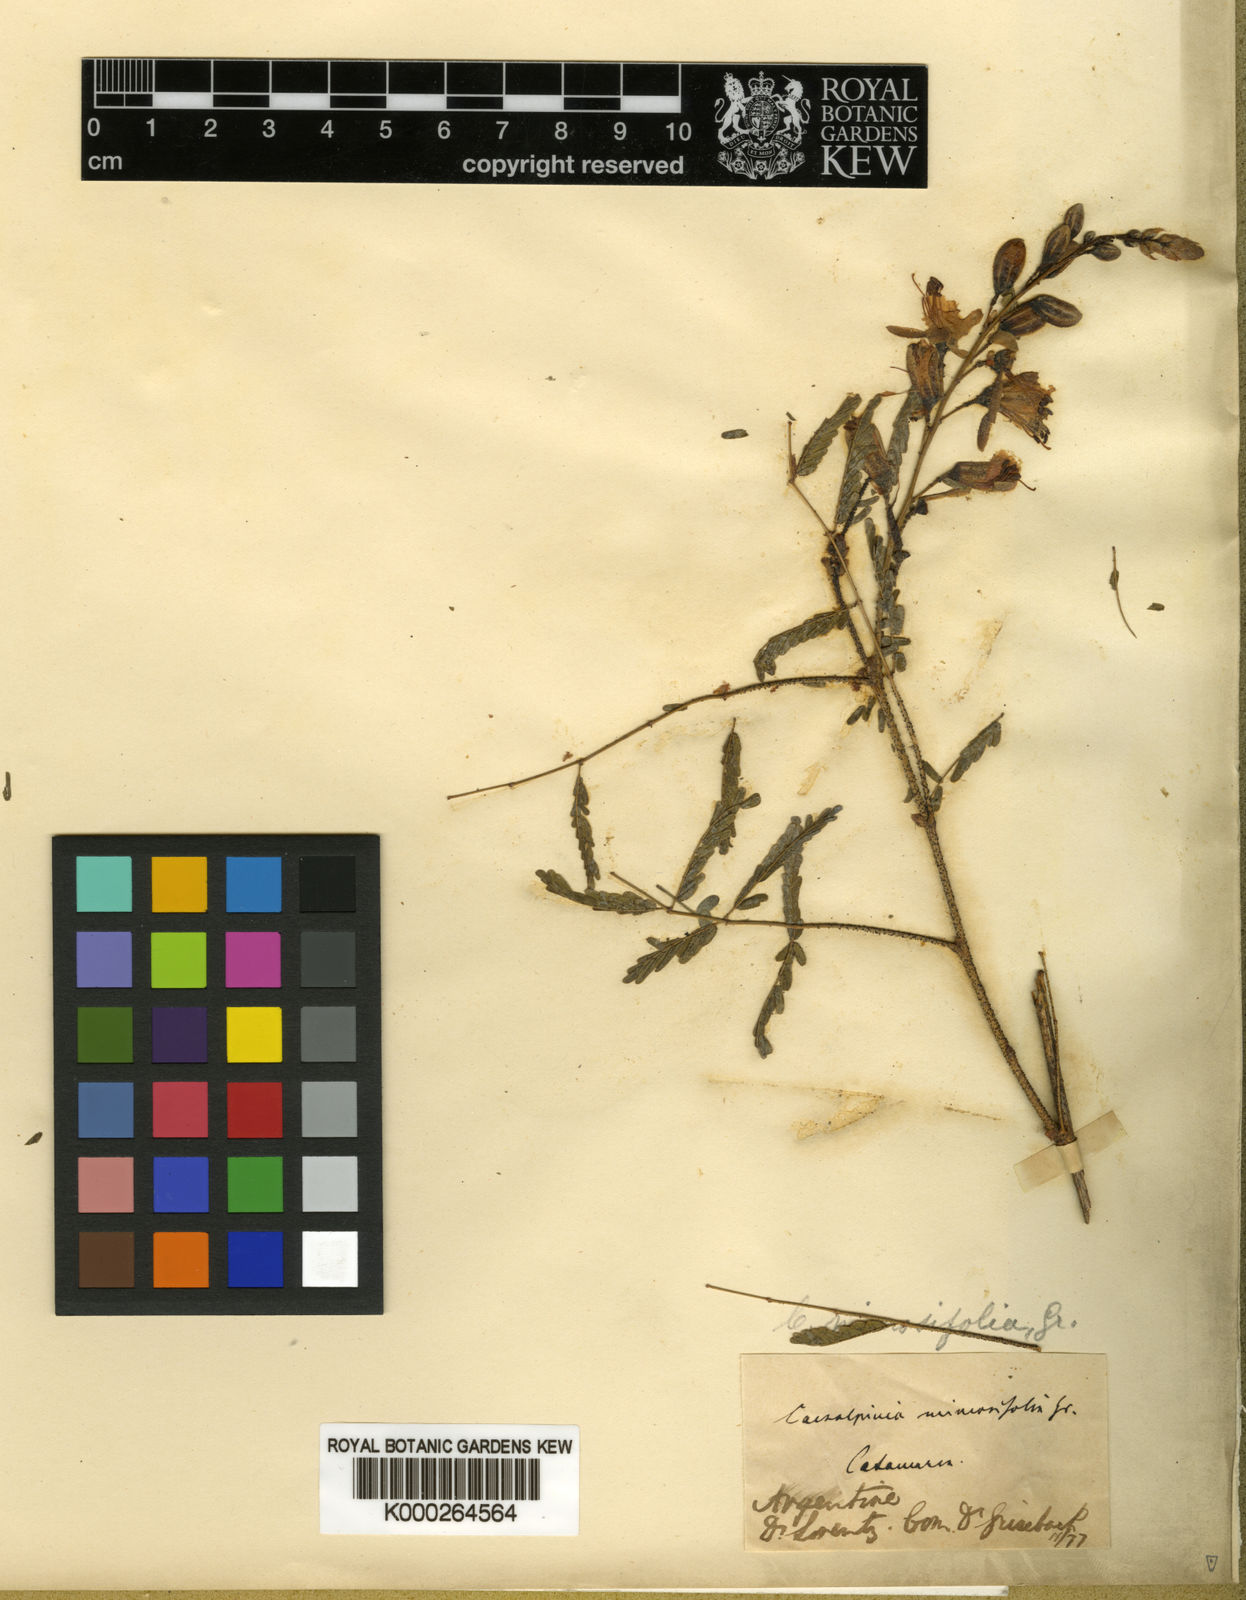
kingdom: Plantae
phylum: Tracheophyta
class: Magnoliopsida
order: Fabales
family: Fabaceae
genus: Arquita
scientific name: Arquita mimosifolia
